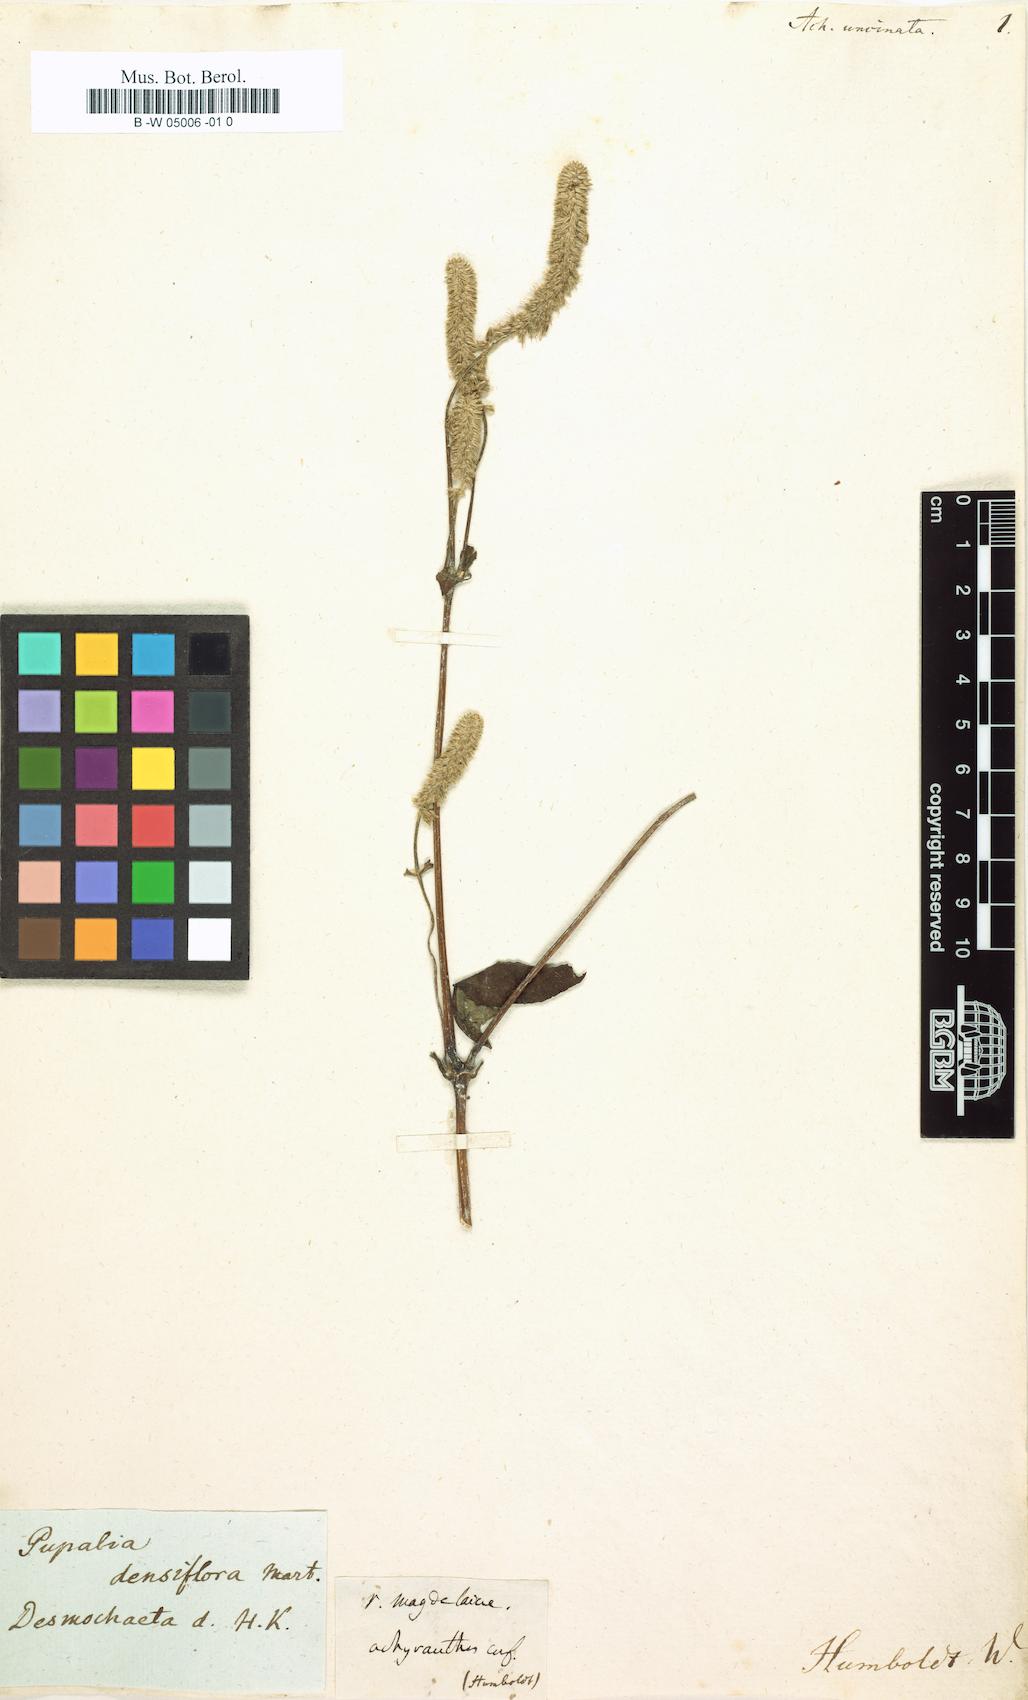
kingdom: Plantae
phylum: Tracheophyta
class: Magnoliopsida
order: Caryophyllales
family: Amaranthaceae
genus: Cyathula
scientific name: Cyathula achyranthoides
